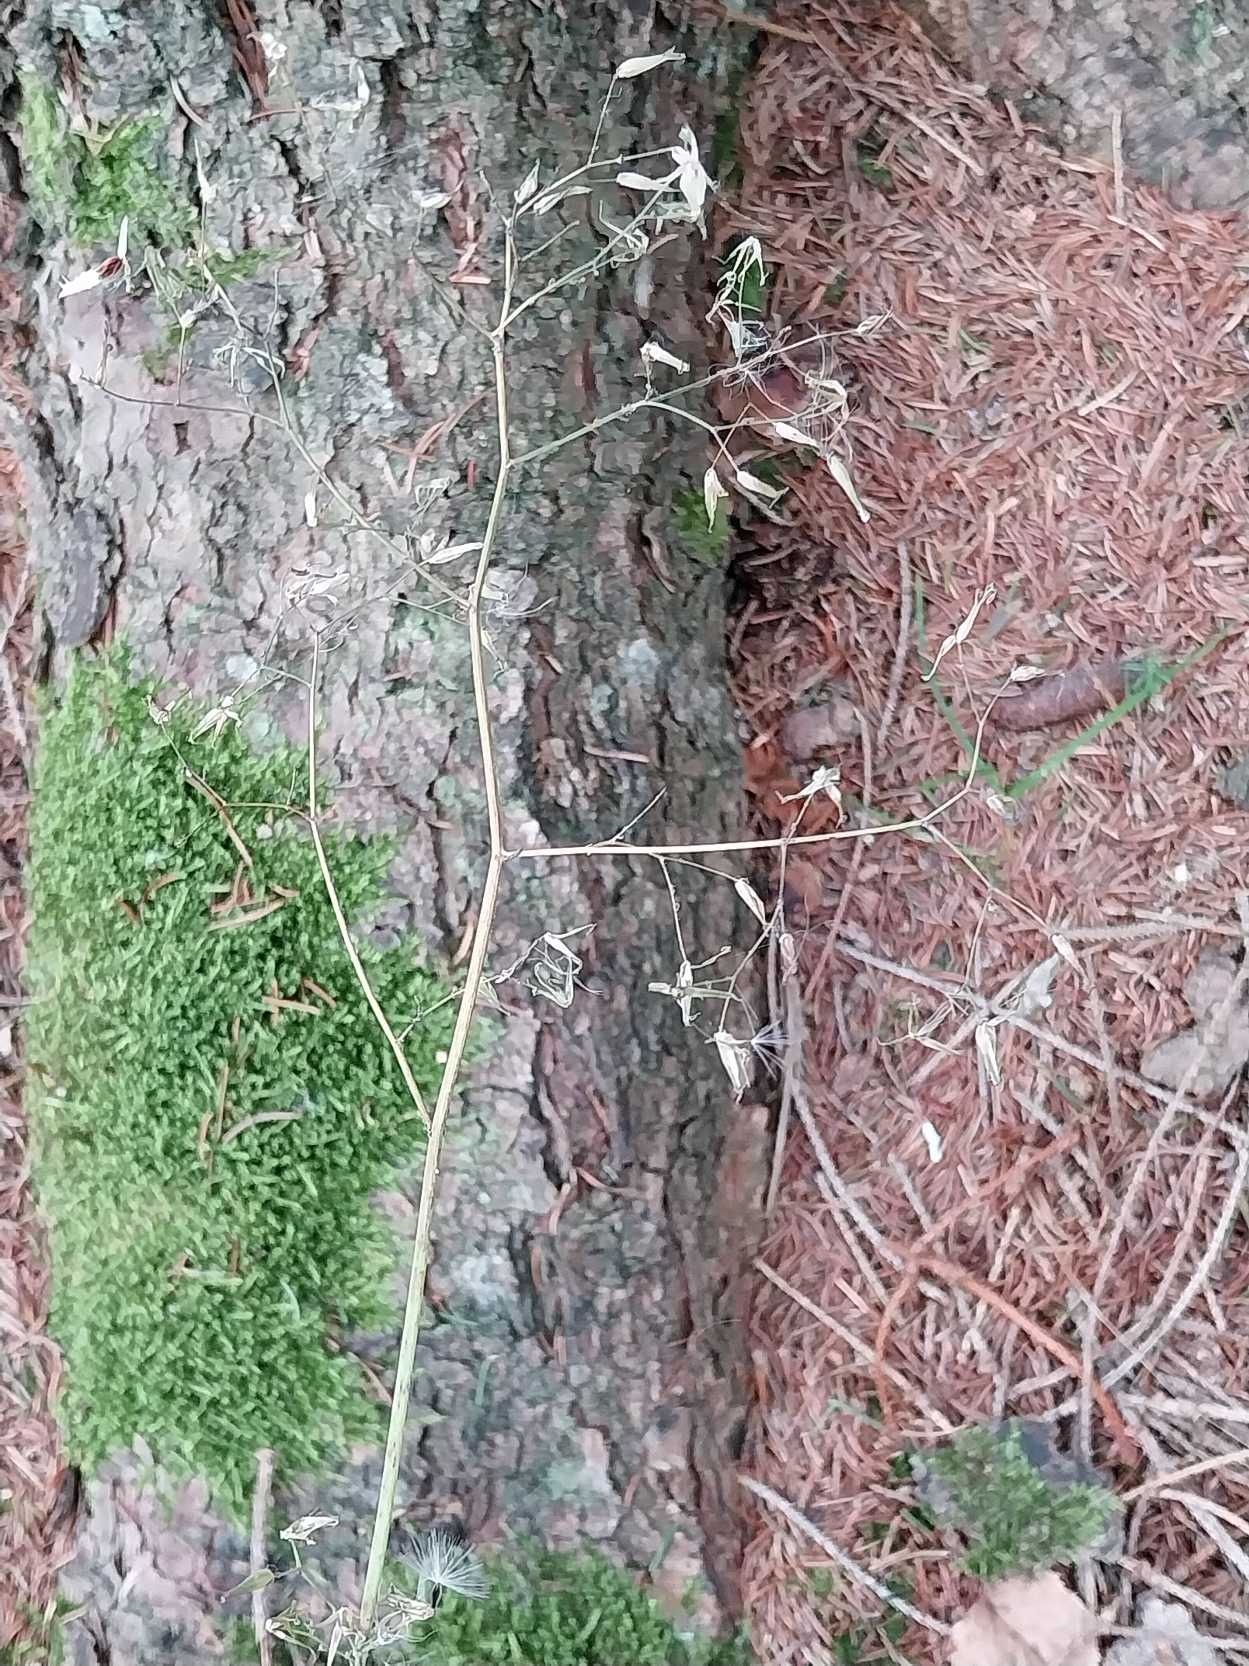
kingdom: Plantae
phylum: Tracheophyta
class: Magnoliopsida
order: Asterales
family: Asteraceae
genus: Mycelis
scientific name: Mycelis muralis
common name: Skov-salat
